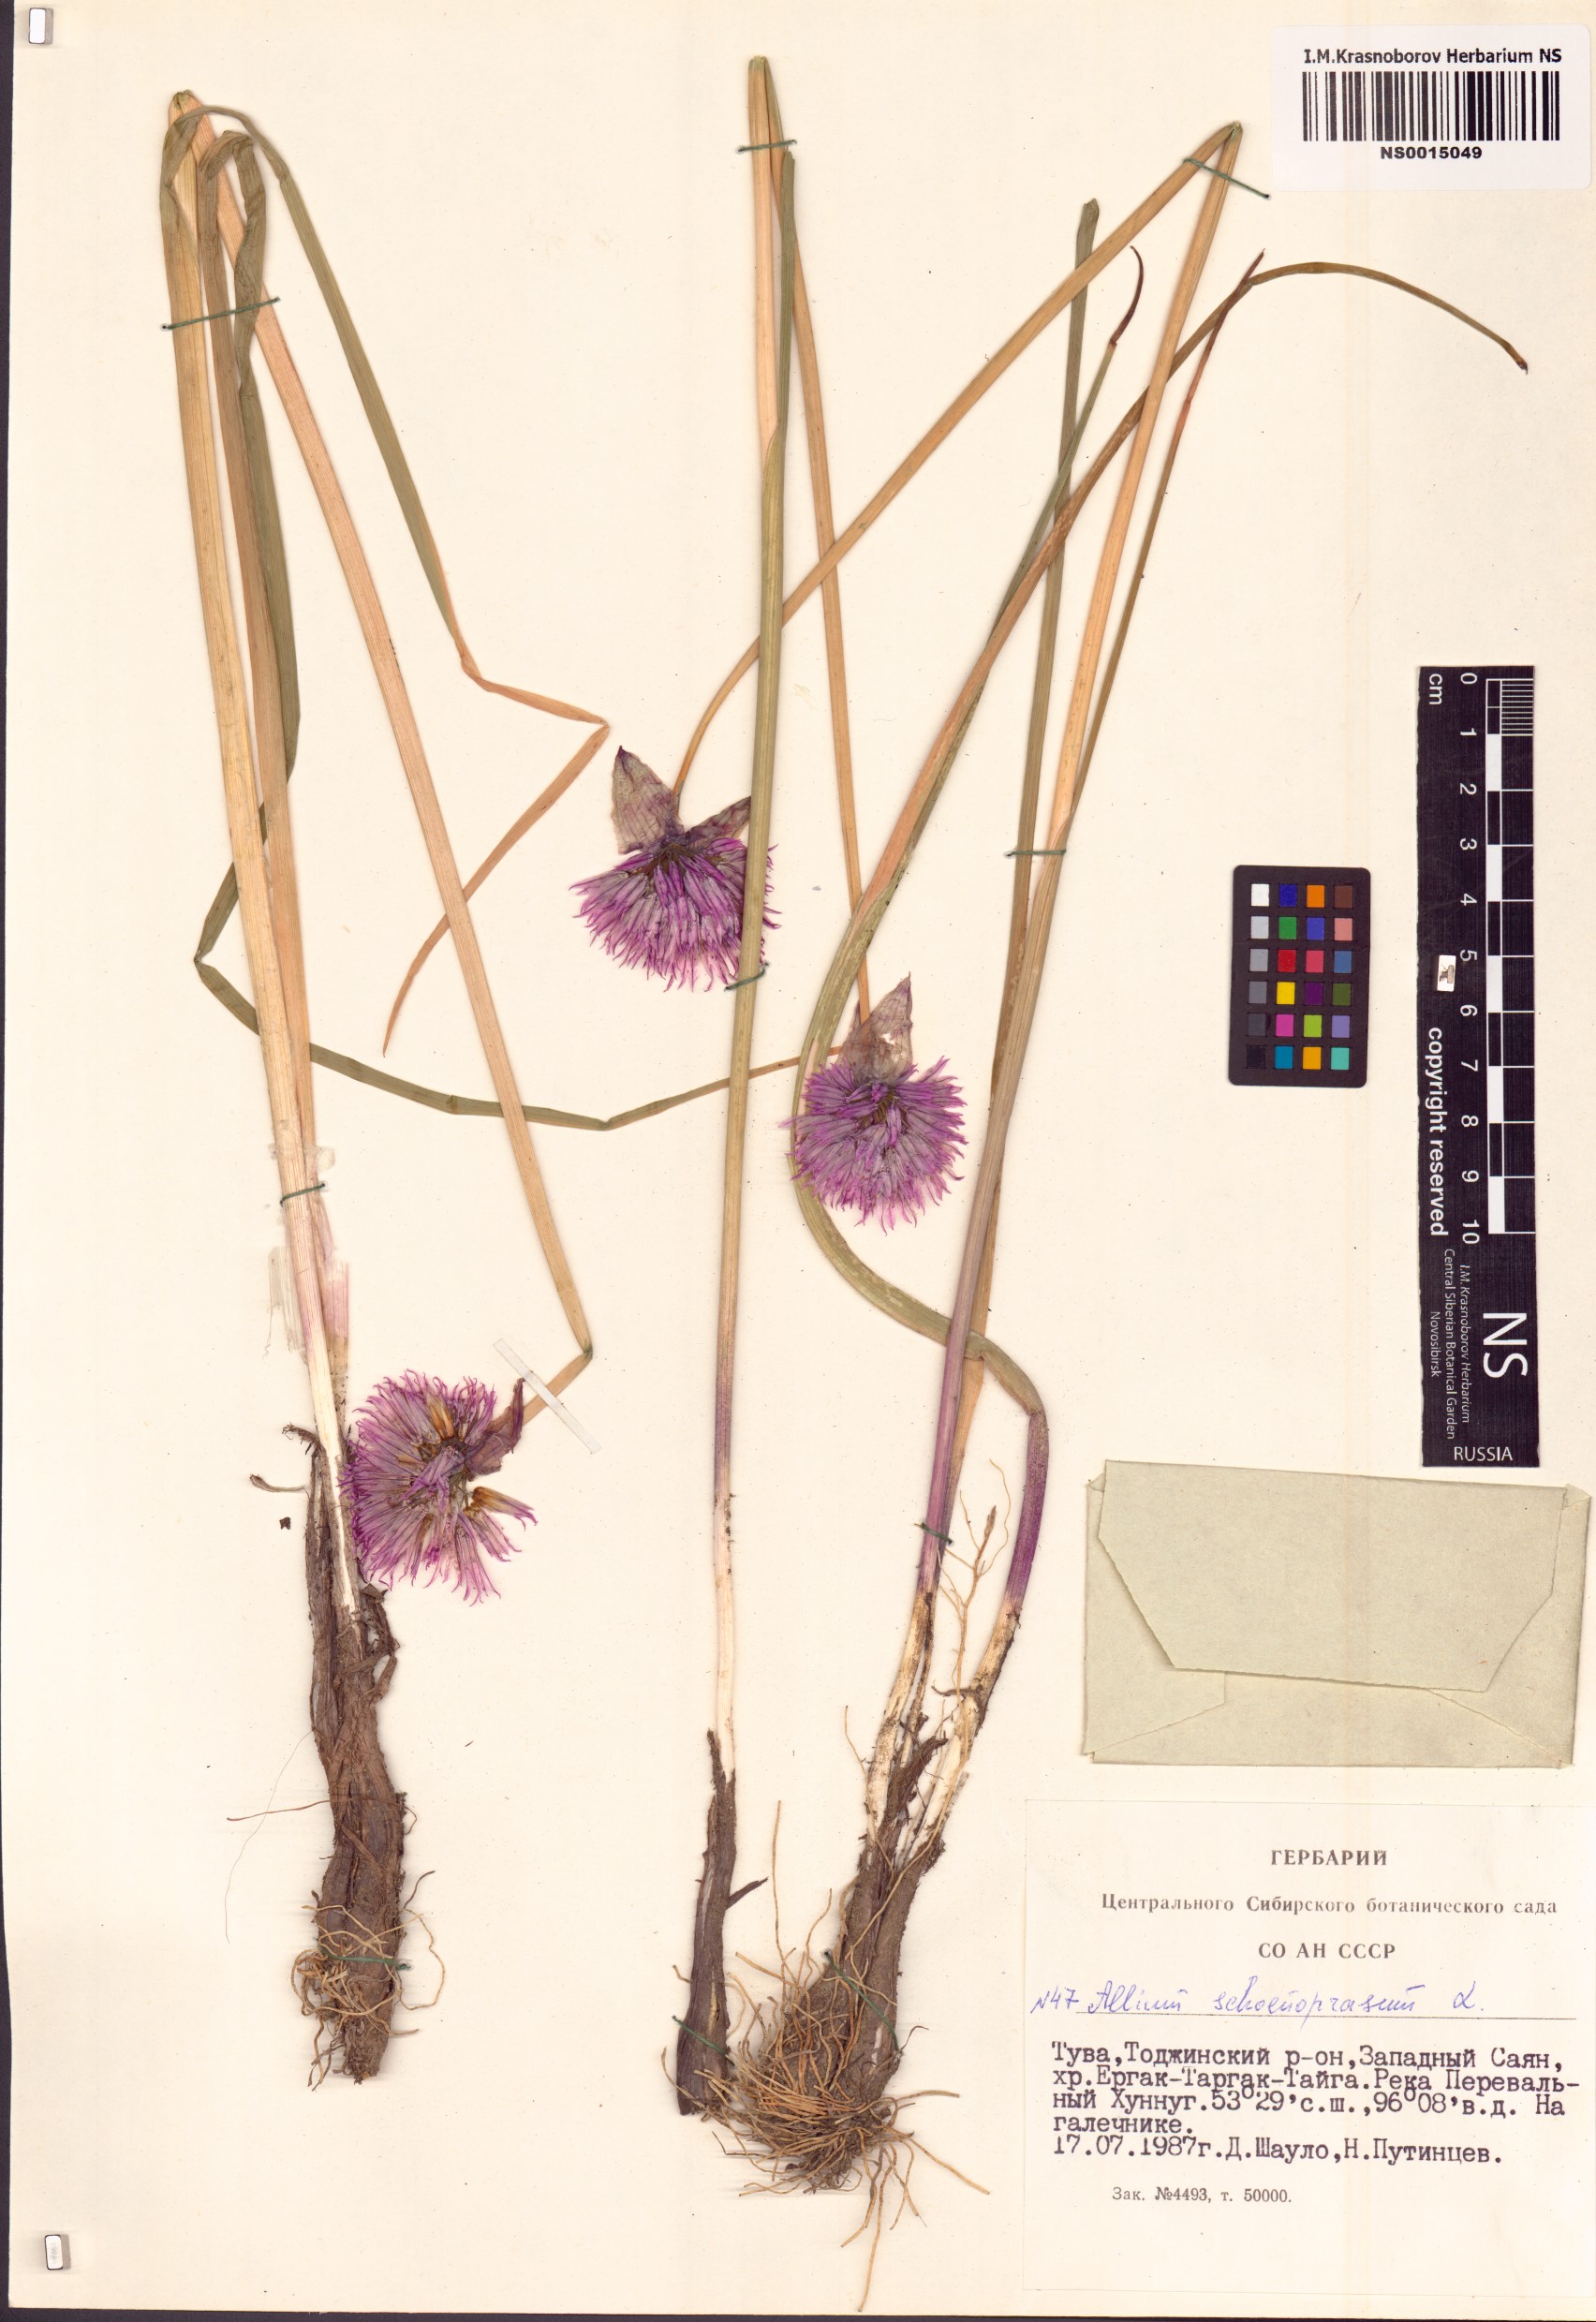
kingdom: Plantae
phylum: Tracheophyta
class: Liliopsida
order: Asparagales
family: Amaryllidaceae
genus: Allium
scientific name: Allium schoenoprasum
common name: Chives
